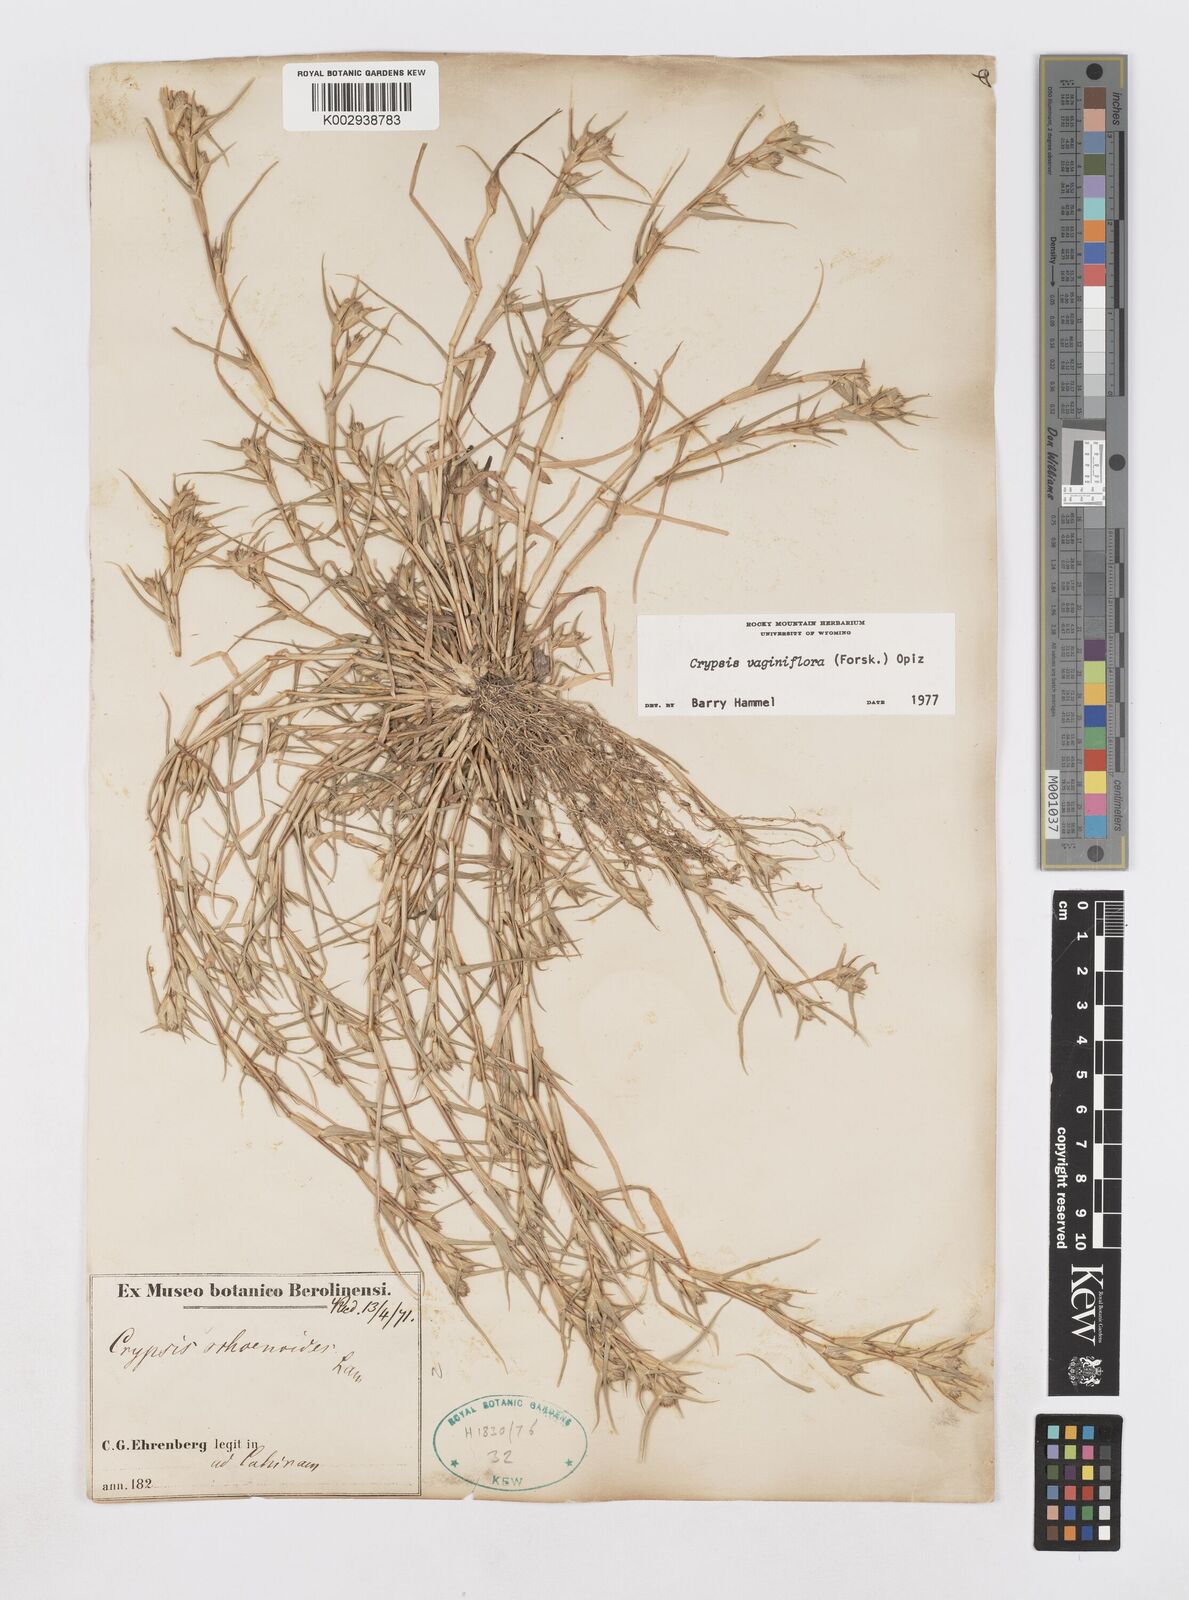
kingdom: Plantae
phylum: Tracheophyta
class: Liliopsida
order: Poales
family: Poaceae
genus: Sporobolus
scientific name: Sporobolus niliacus
